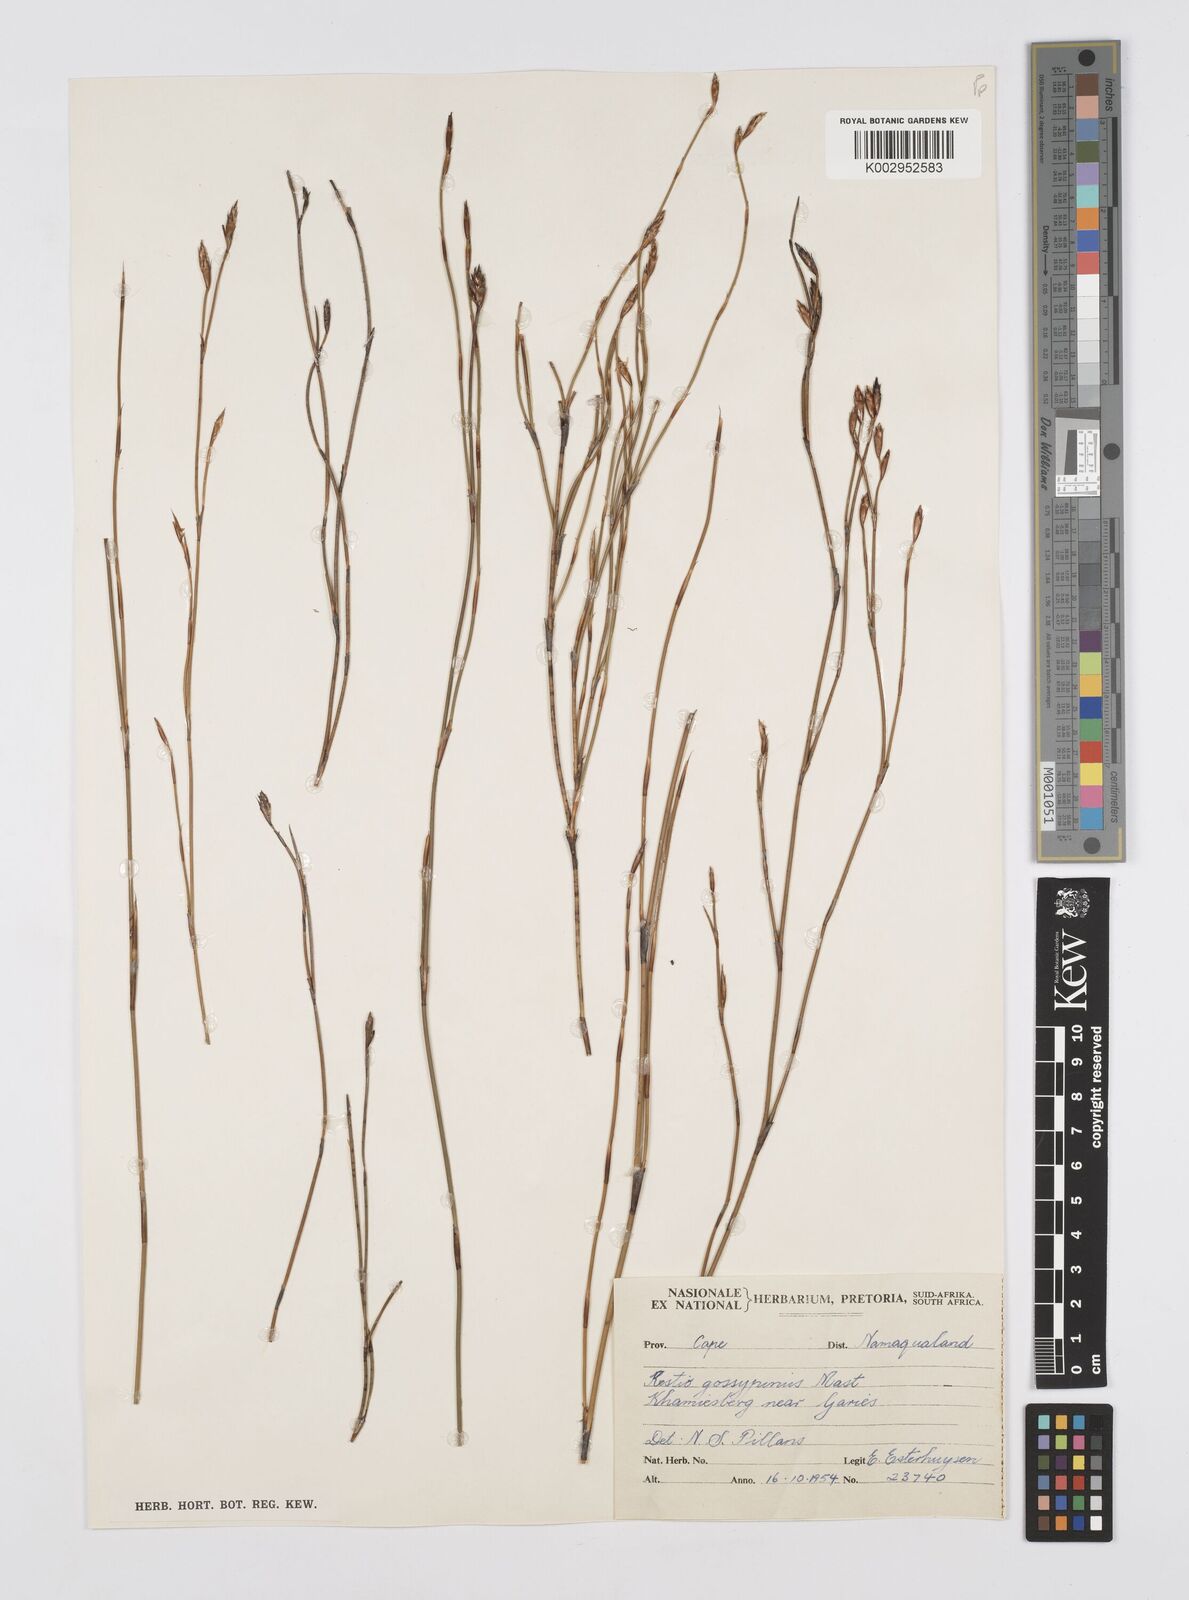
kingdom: Plantae
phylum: Tracheophyta
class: Liliopsida
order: Poales
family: Restionaceae
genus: Restio
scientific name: Restio gossypinus
